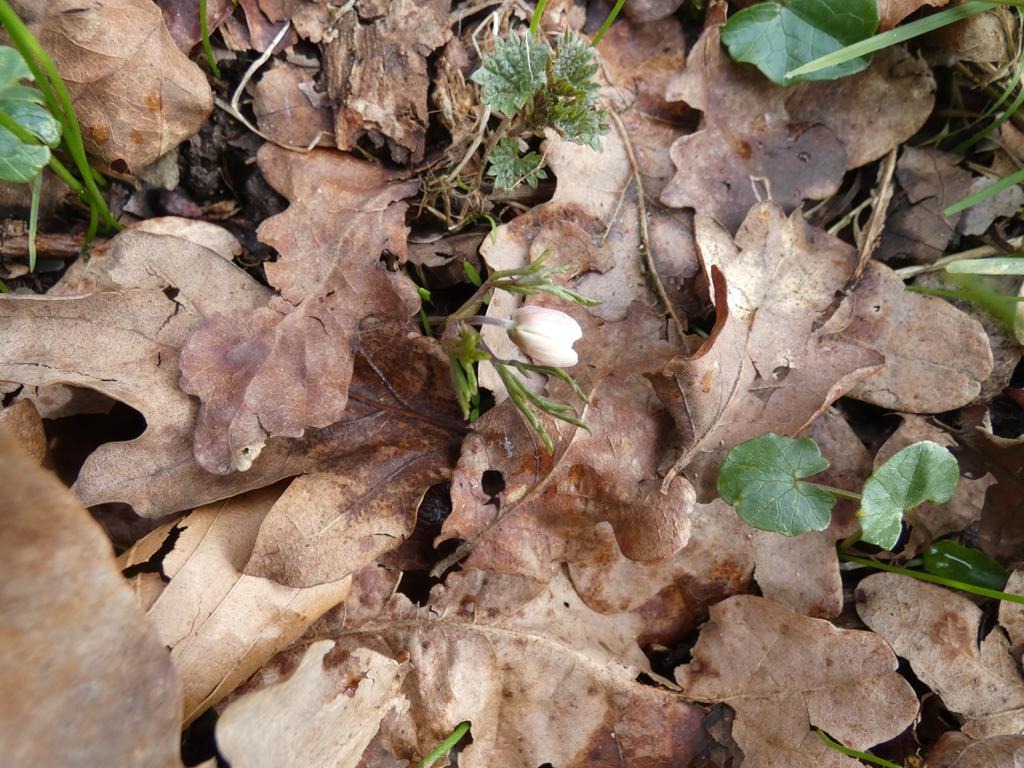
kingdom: Plantae
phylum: Tracheophyta
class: Magnoliopsida
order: Ranunculales
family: Ranunculaceae
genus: Anemone
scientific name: Anemone nemorosa
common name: Hvid anemone
